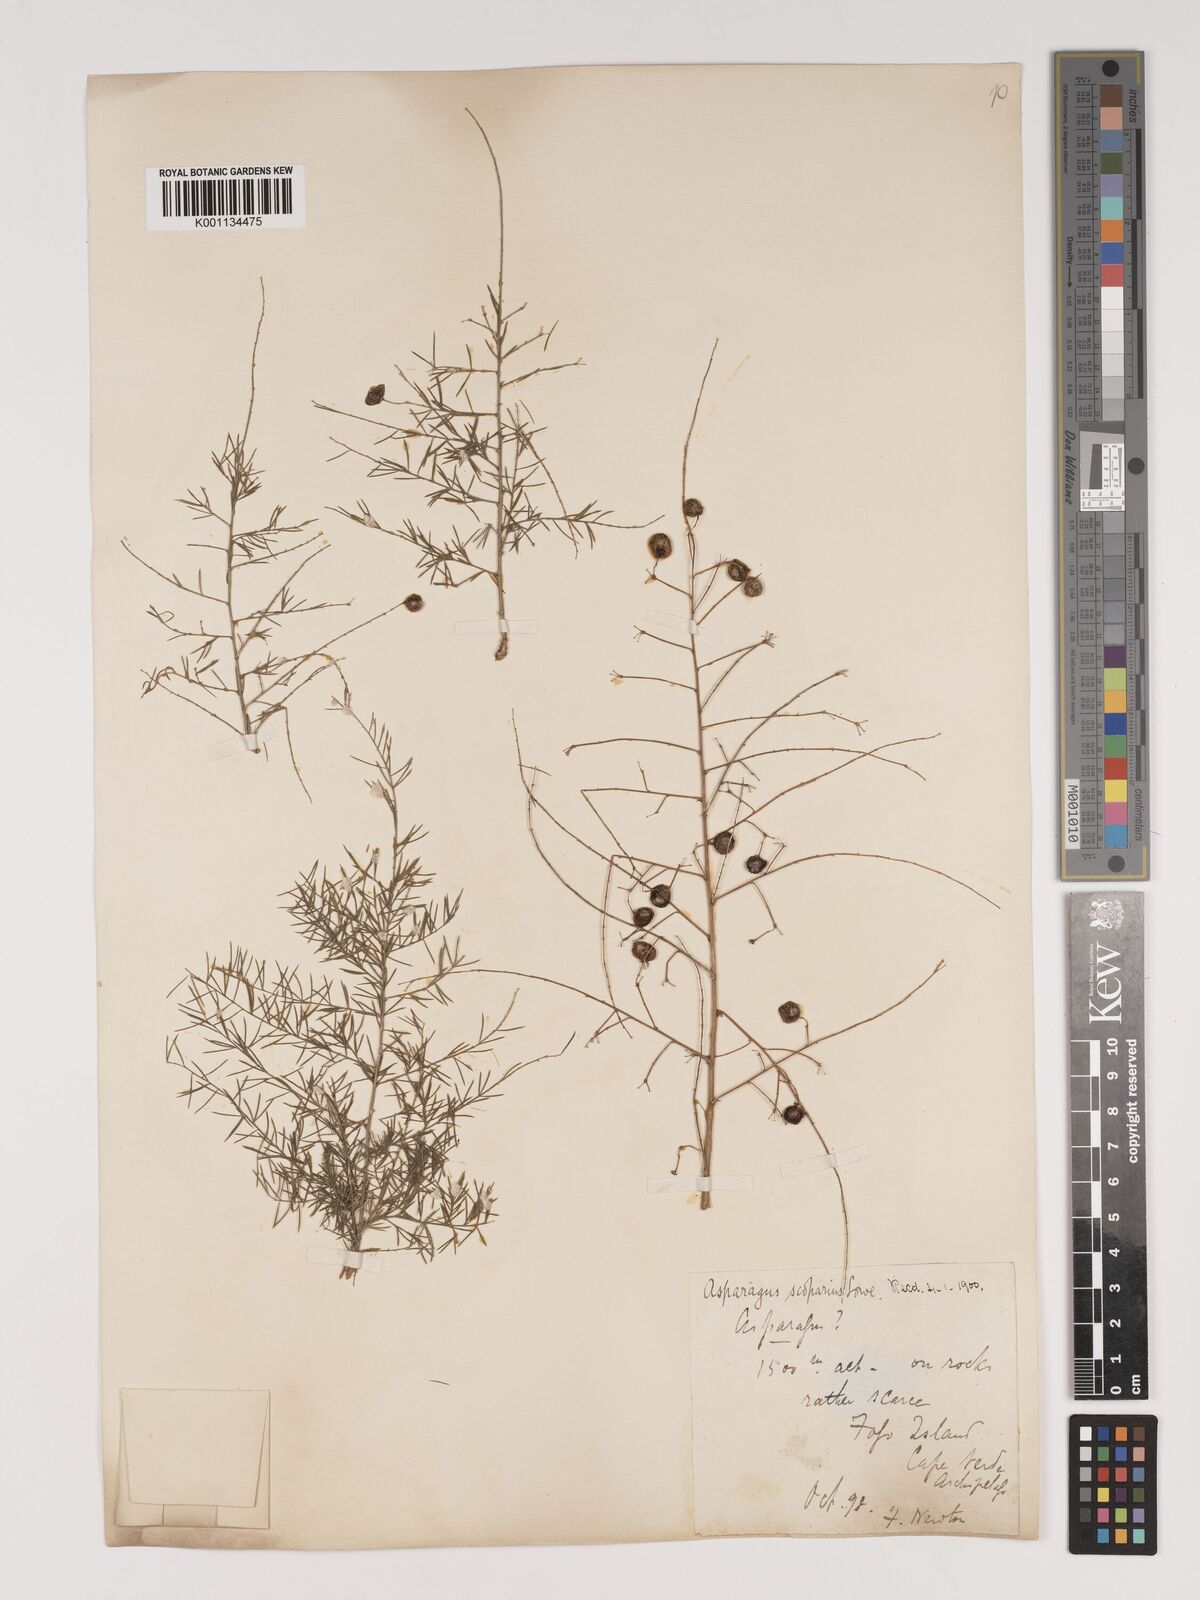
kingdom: Plantae
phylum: Tracheophyta
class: Liliopsida
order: Asparagales
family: Asparagaceae
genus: Asparagus
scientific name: Asparagus scoparius
